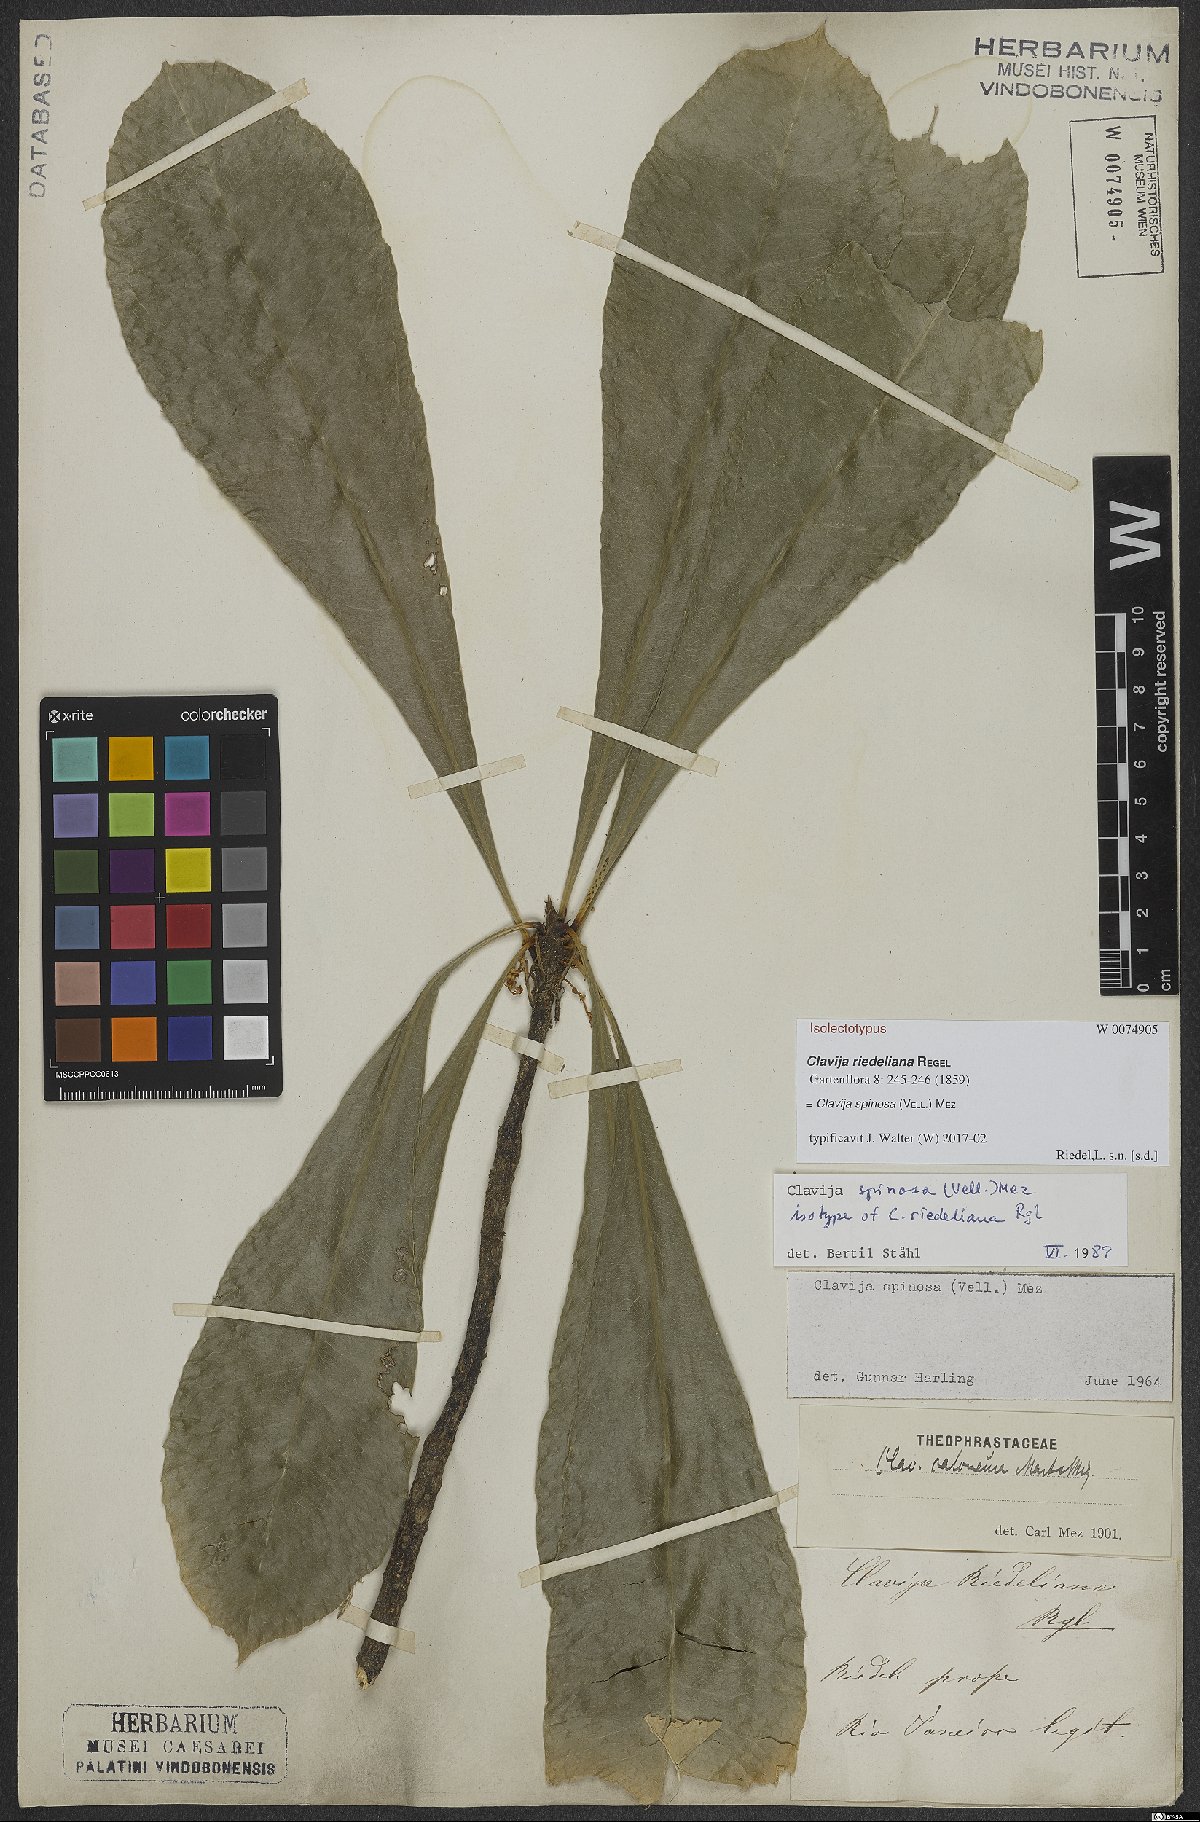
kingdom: Plantae
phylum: Tracheophyta
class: Magnoliopsida
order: Ericales
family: Primulaceae
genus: Clavija
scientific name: Clavija spinosa
